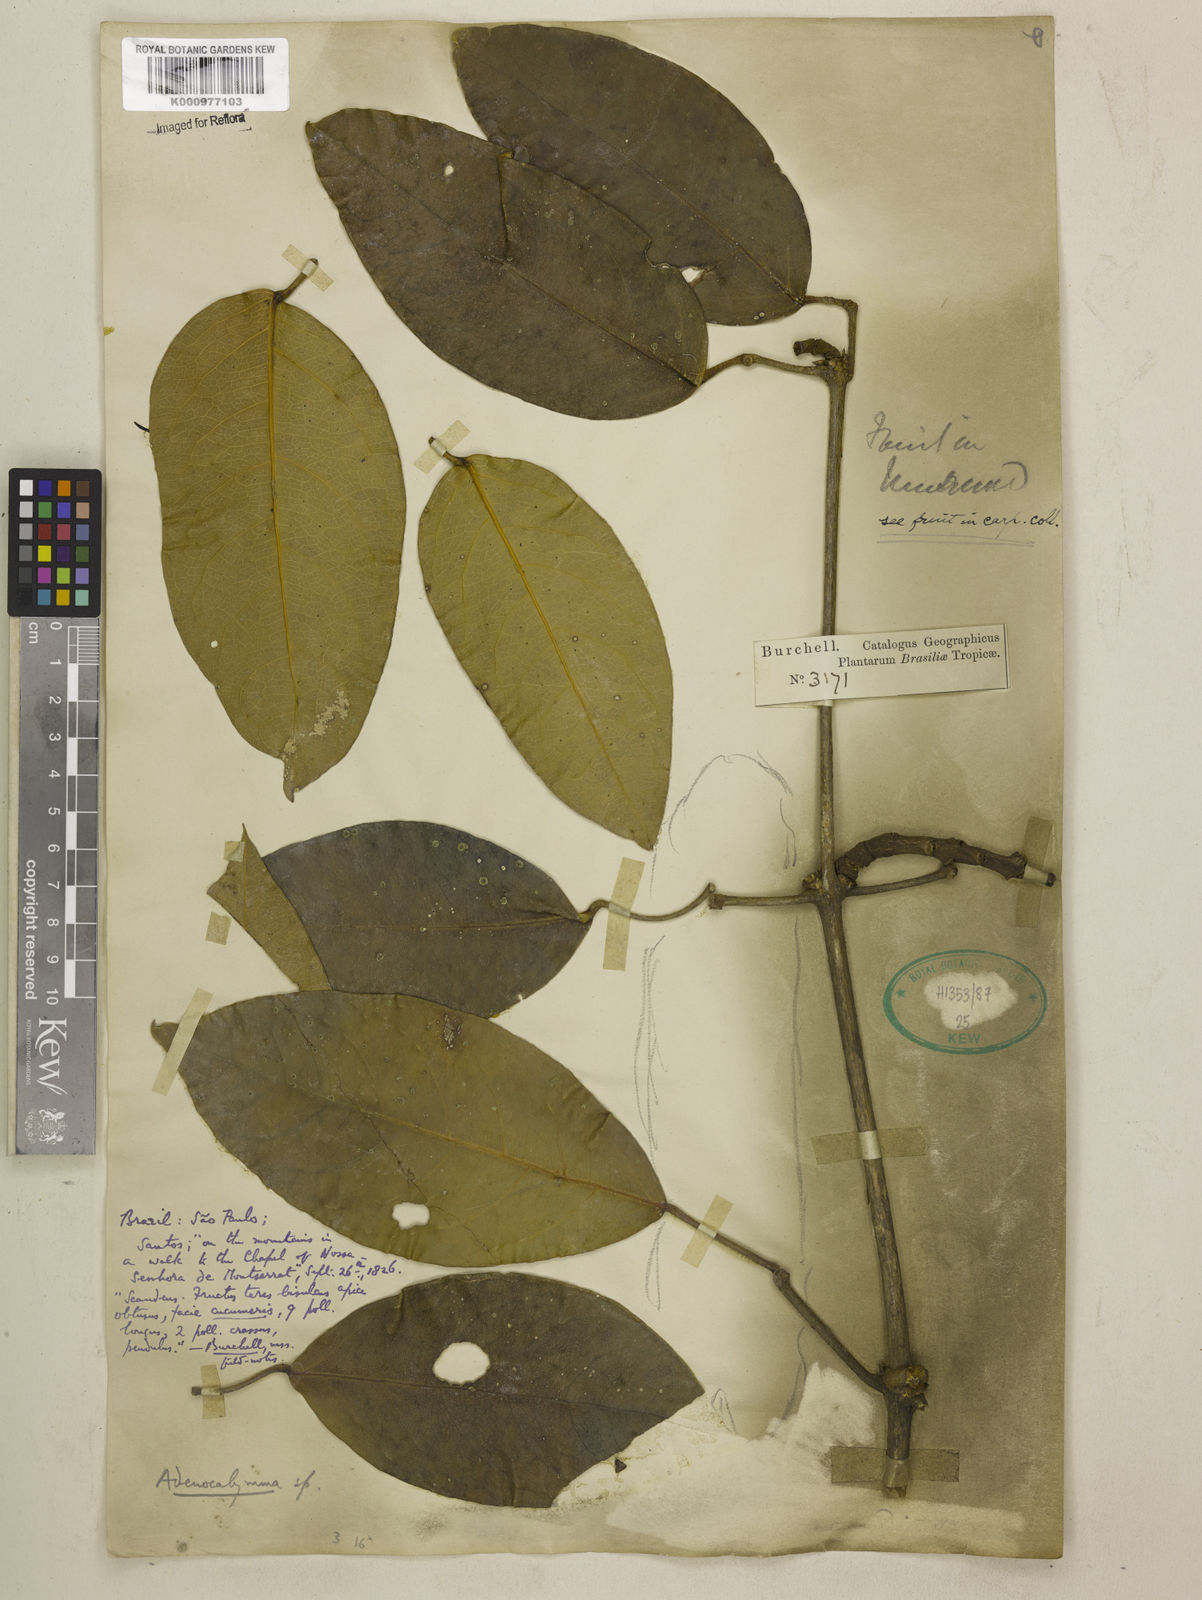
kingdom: Plantae
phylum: Tracheophyta
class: Magnoliopsida
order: Lamiales
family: Bignoniaceae
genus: Adenocalymma
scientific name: Adenocalymma
